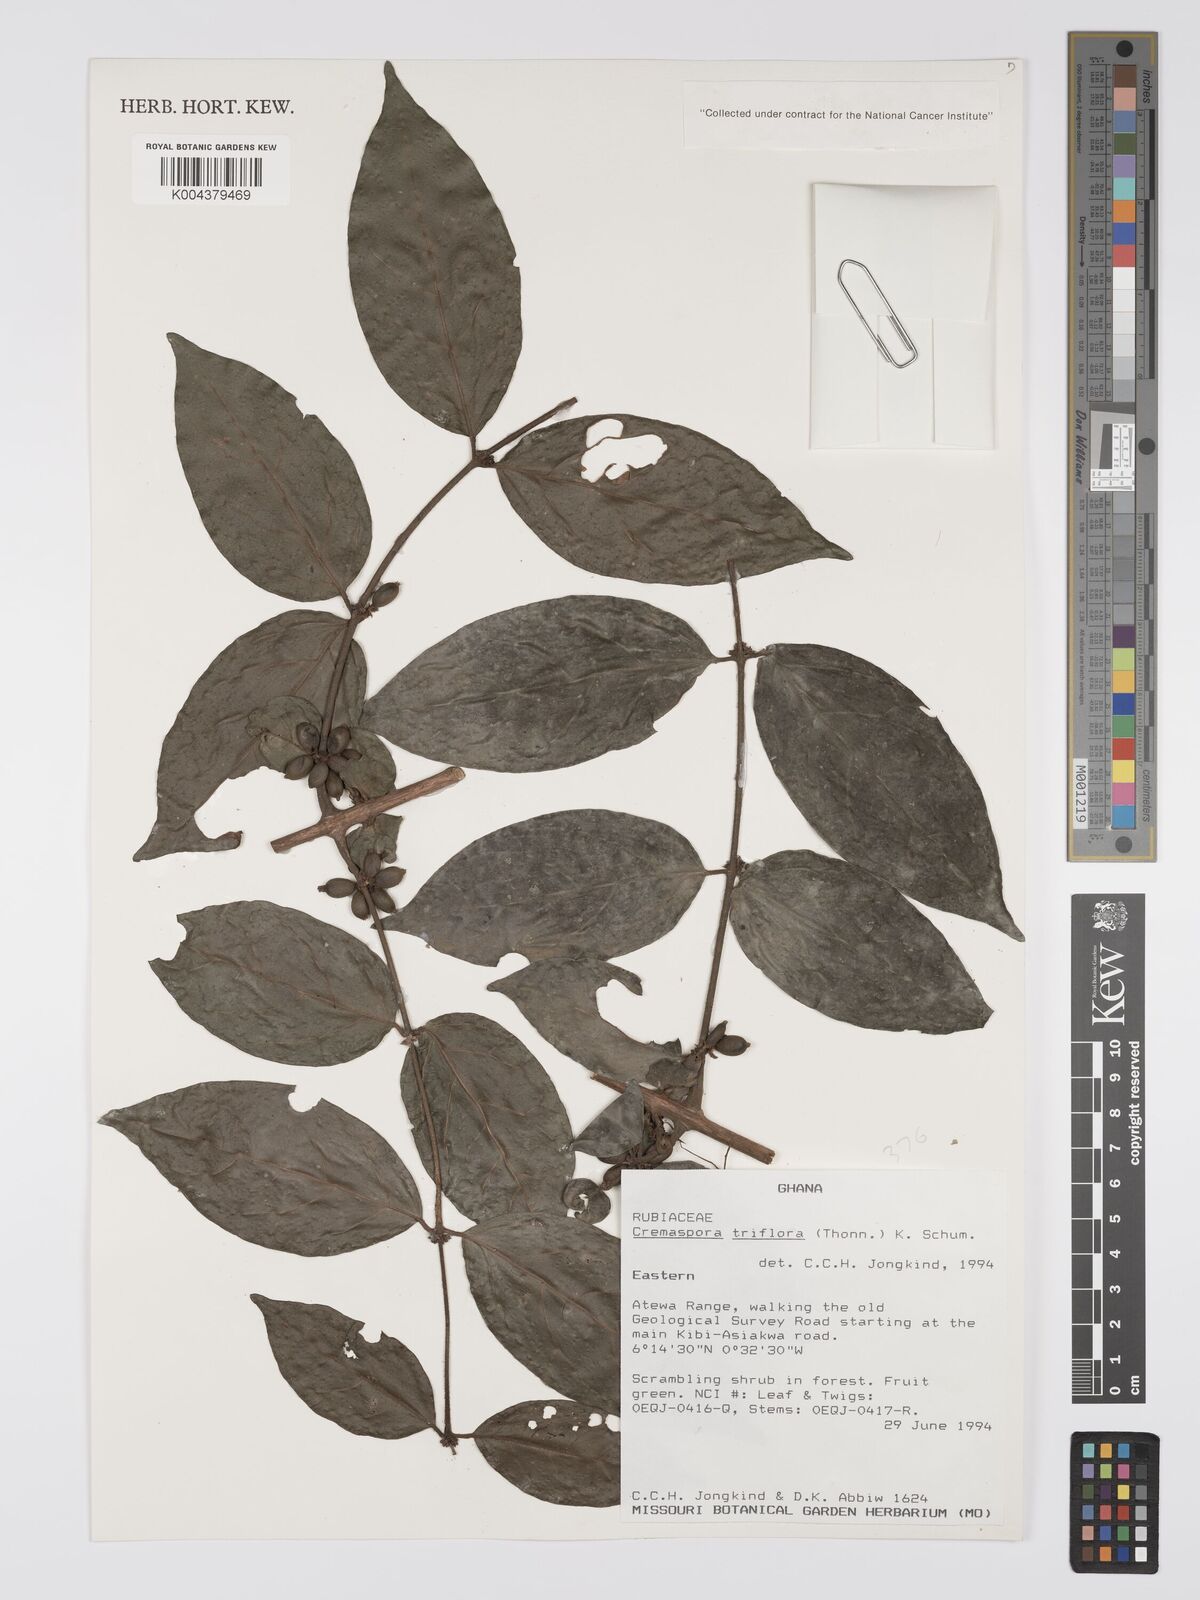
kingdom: Plantae
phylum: Tracheophyta
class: Magnoliopsida
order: Gentianales
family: Rubiaceae
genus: Cremaspora
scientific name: Cremaspora triflora
